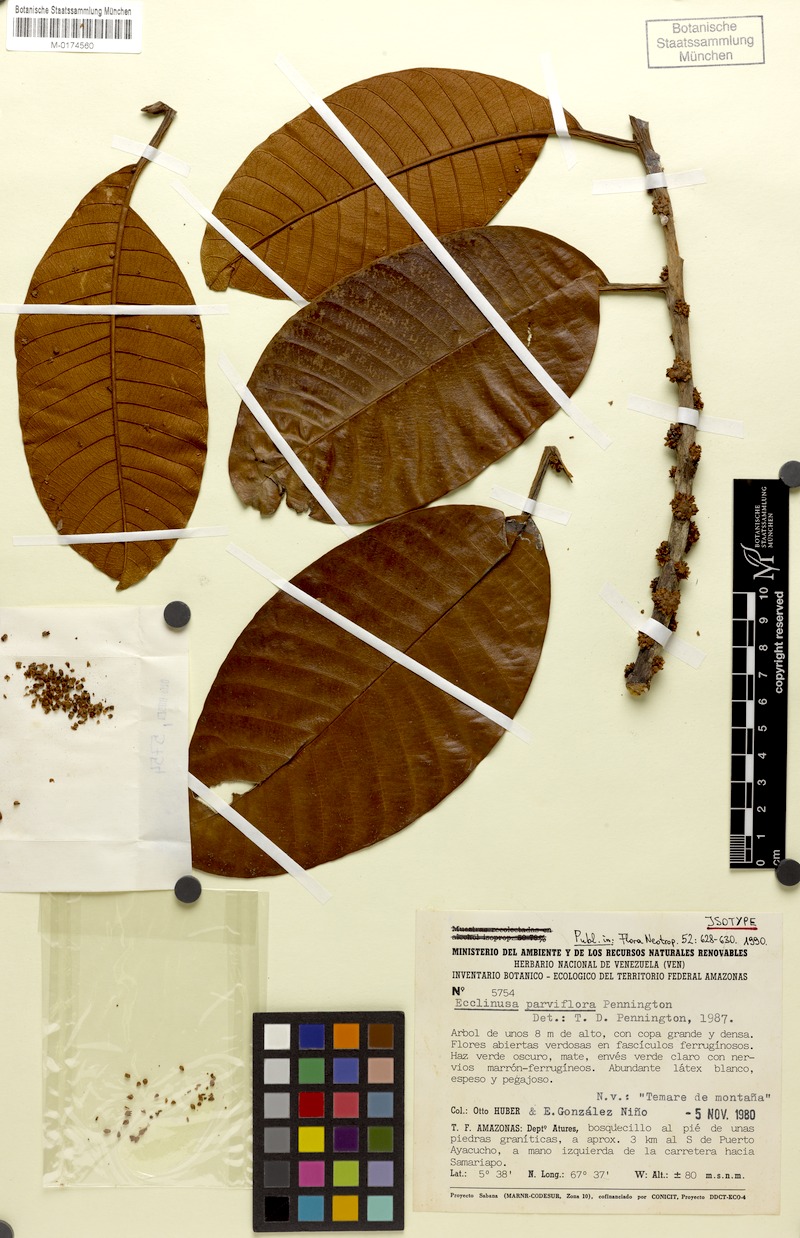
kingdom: Plantae
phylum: Tracheophyta
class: Magnoliopsida
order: Ericales
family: Sapotaceae
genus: Ecclinusa
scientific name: Ecclinusa parviflora
